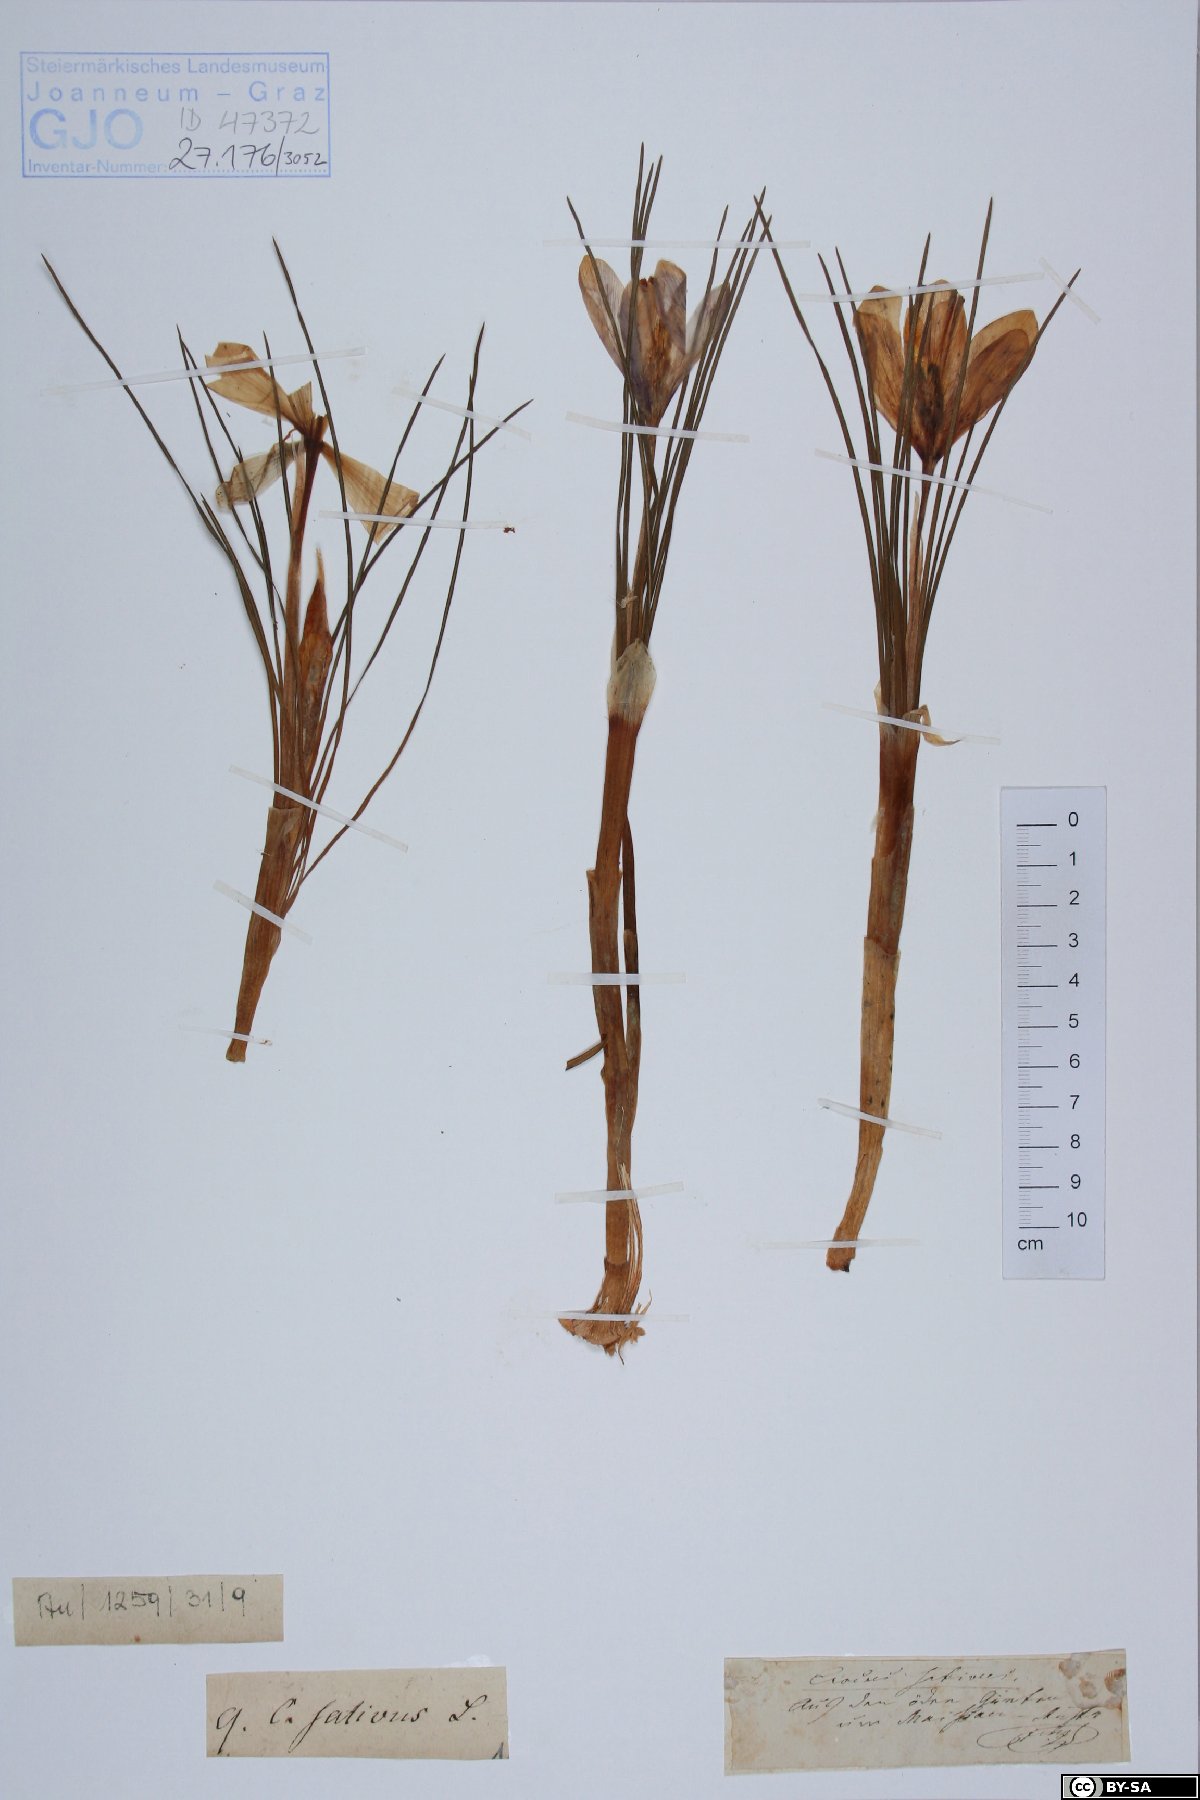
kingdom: Plantae
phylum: Tracheophyta
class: Liliopsida
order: Asparagales
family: Iridaceae
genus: Crocus
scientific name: Crocus sativus
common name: Saffron crocus
